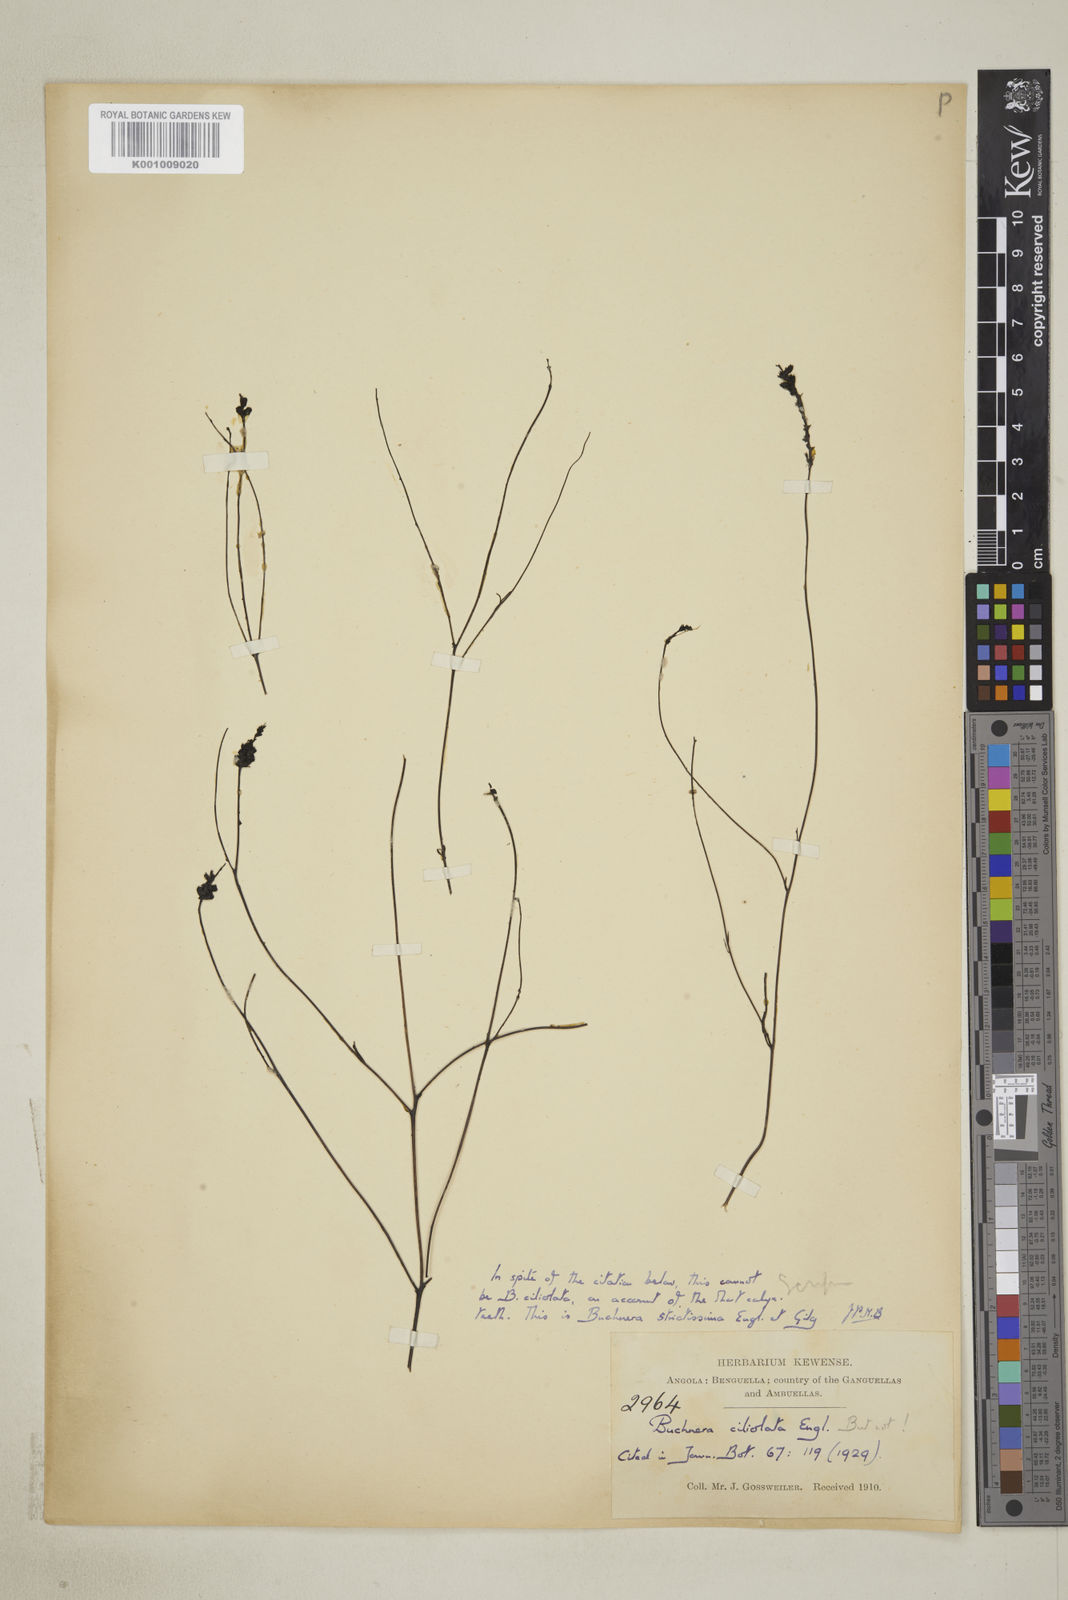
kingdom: Plantae
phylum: Tracheophyta
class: Magnoliopsida
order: Lamiales
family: Orobanchaceae
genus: Buchnera
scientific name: Buchnera strictissima
